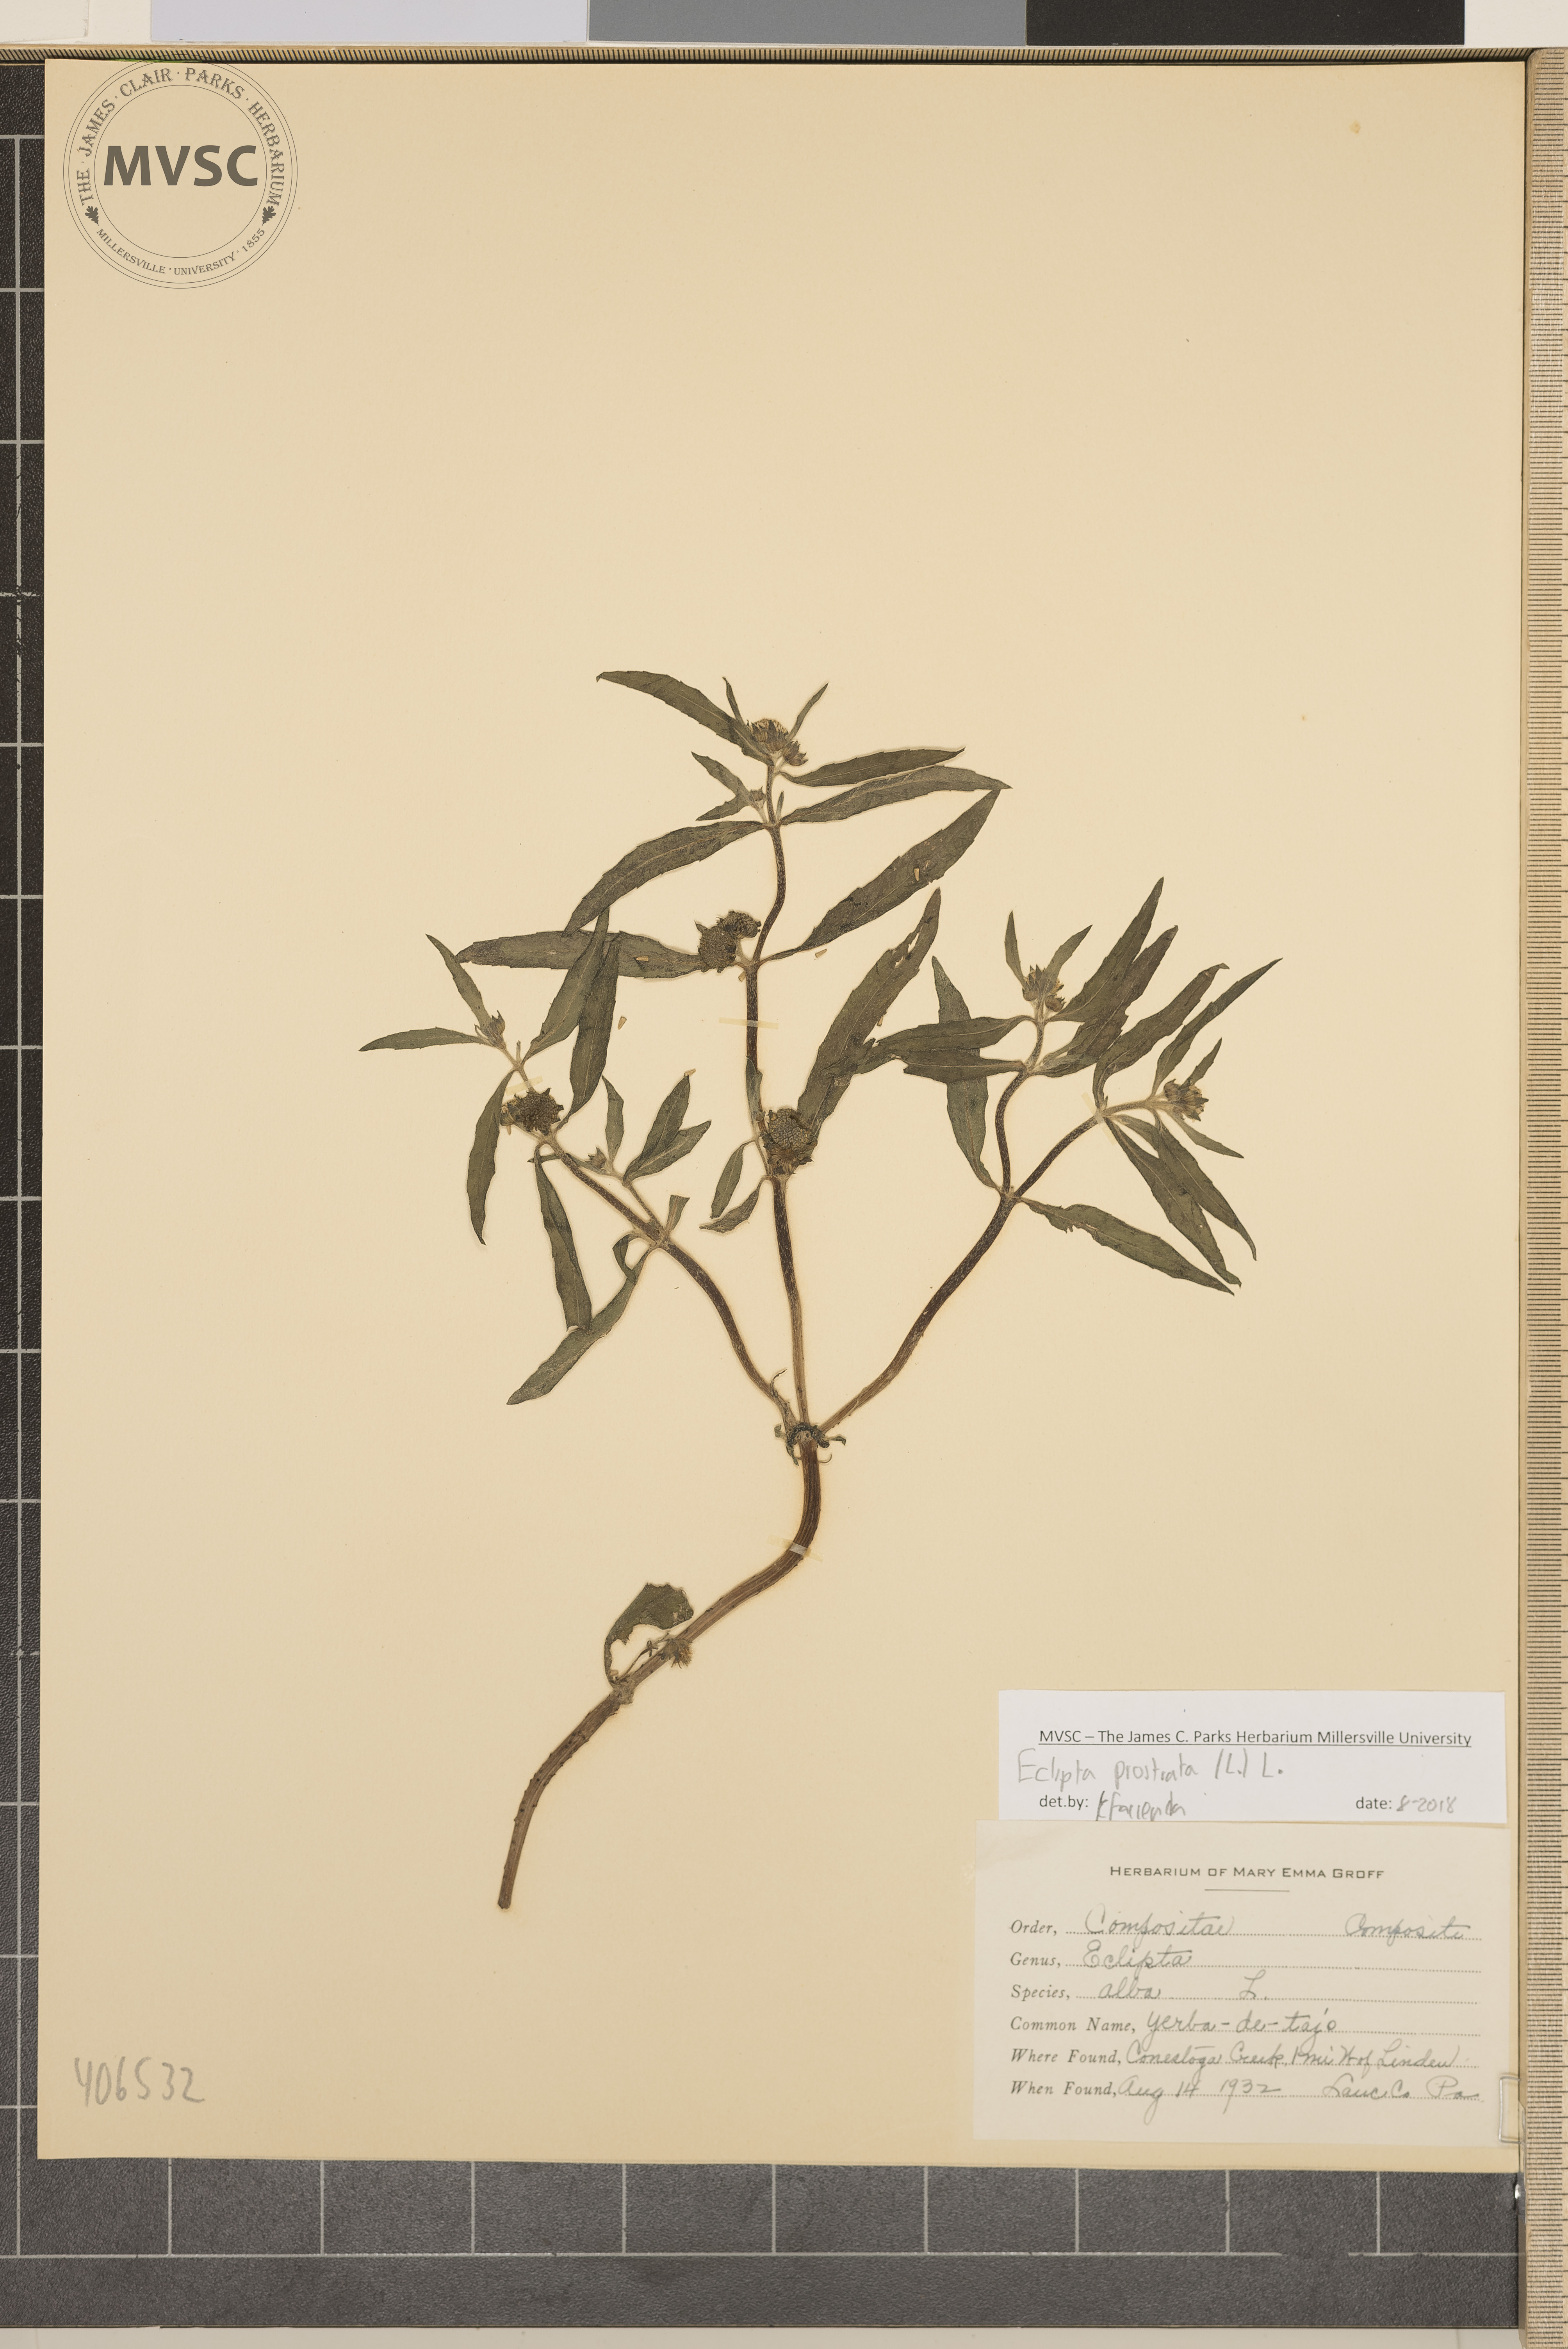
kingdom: Plantae
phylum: Tracheophyta
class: Magnoliopsida
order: Asterales
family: Asteraceae
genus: Eclipta
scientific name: Eclipta prostrata
